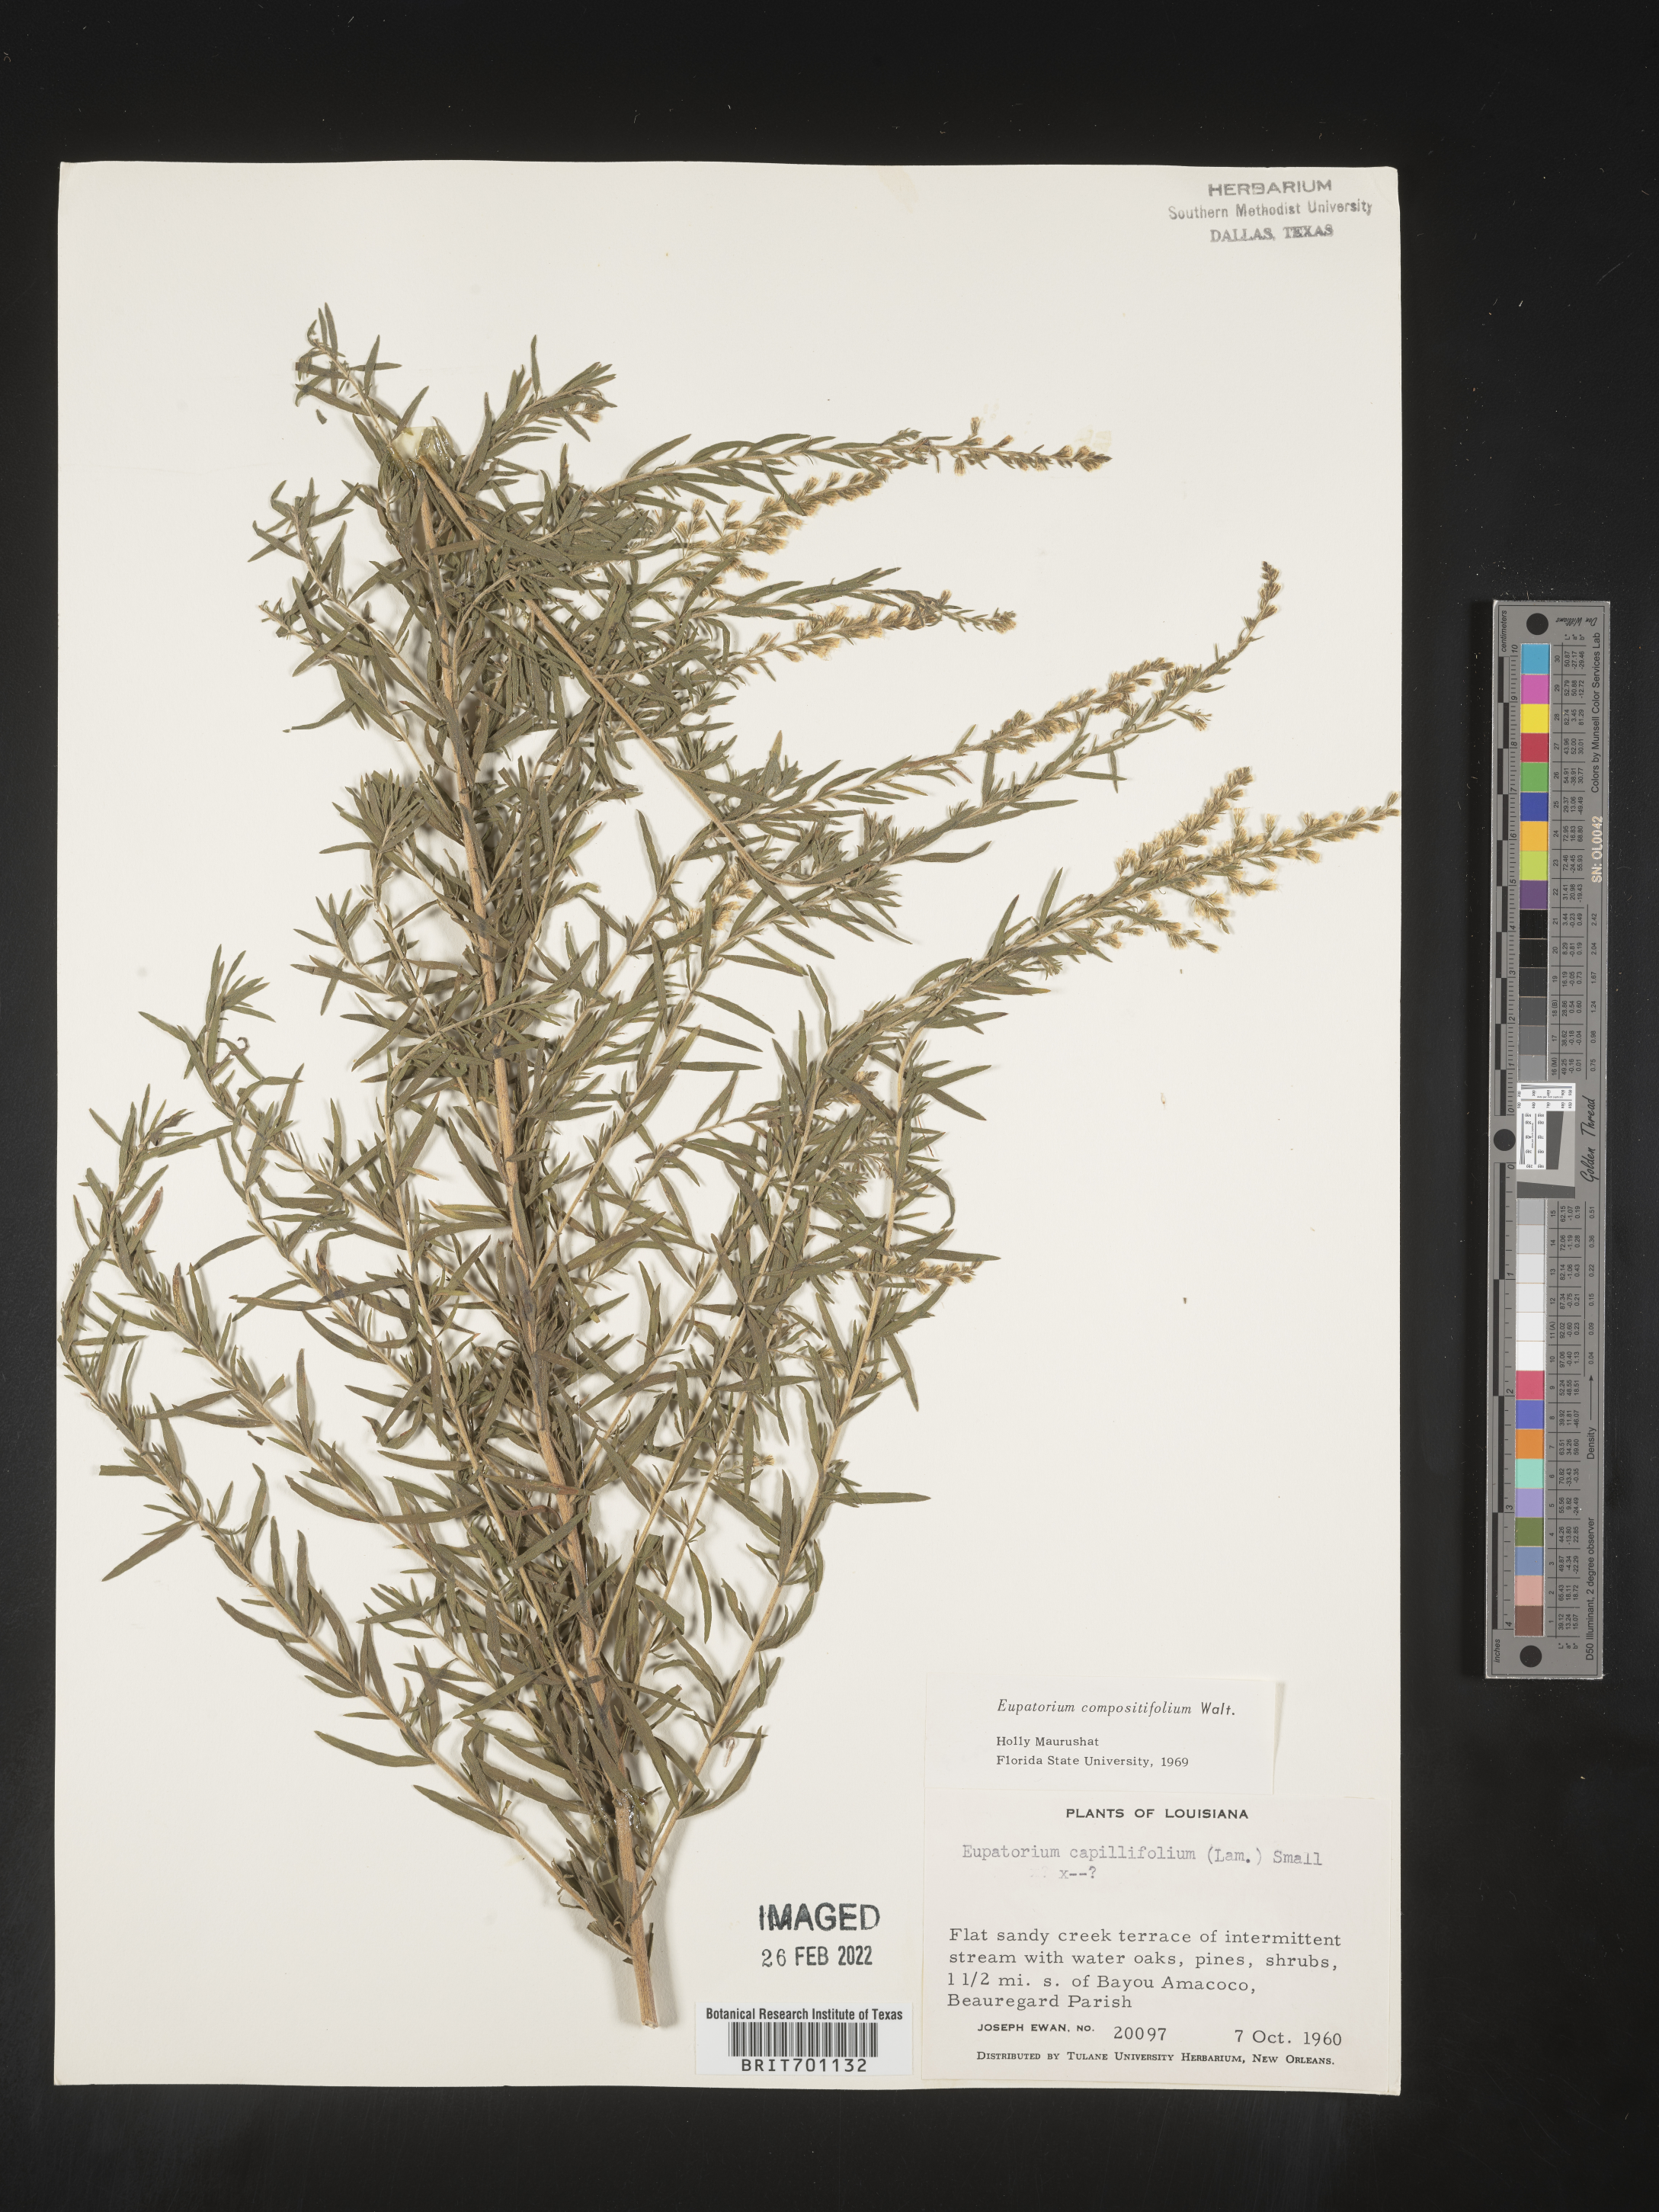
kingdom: Plantae
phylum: Tracheophyta
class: Magnoliopsida
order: Asterales
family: Asteraceae
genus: Eupatorium
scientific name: Eupatorium compositifolium
